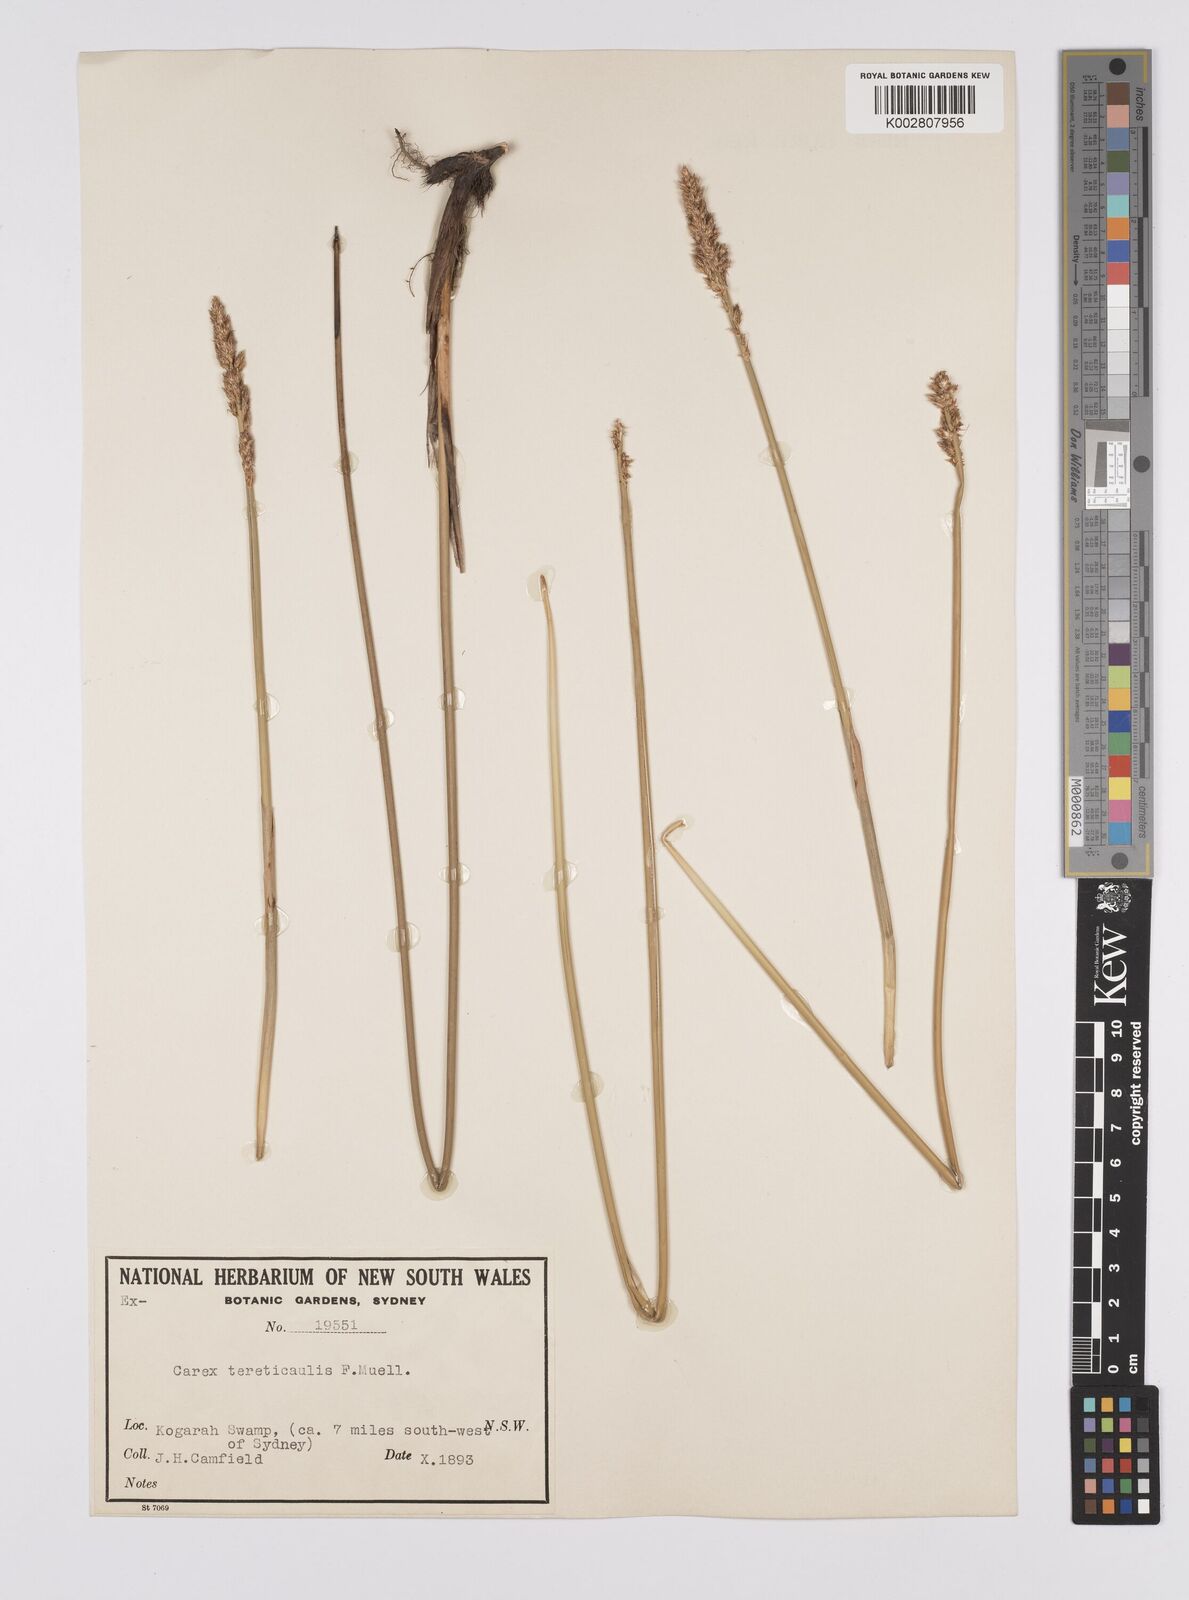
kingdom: Plantae
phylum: Tracheophyta
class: Liliopsida
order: Poales
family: Cyperaceae
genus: Carex
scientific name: Carex tereticaulis
